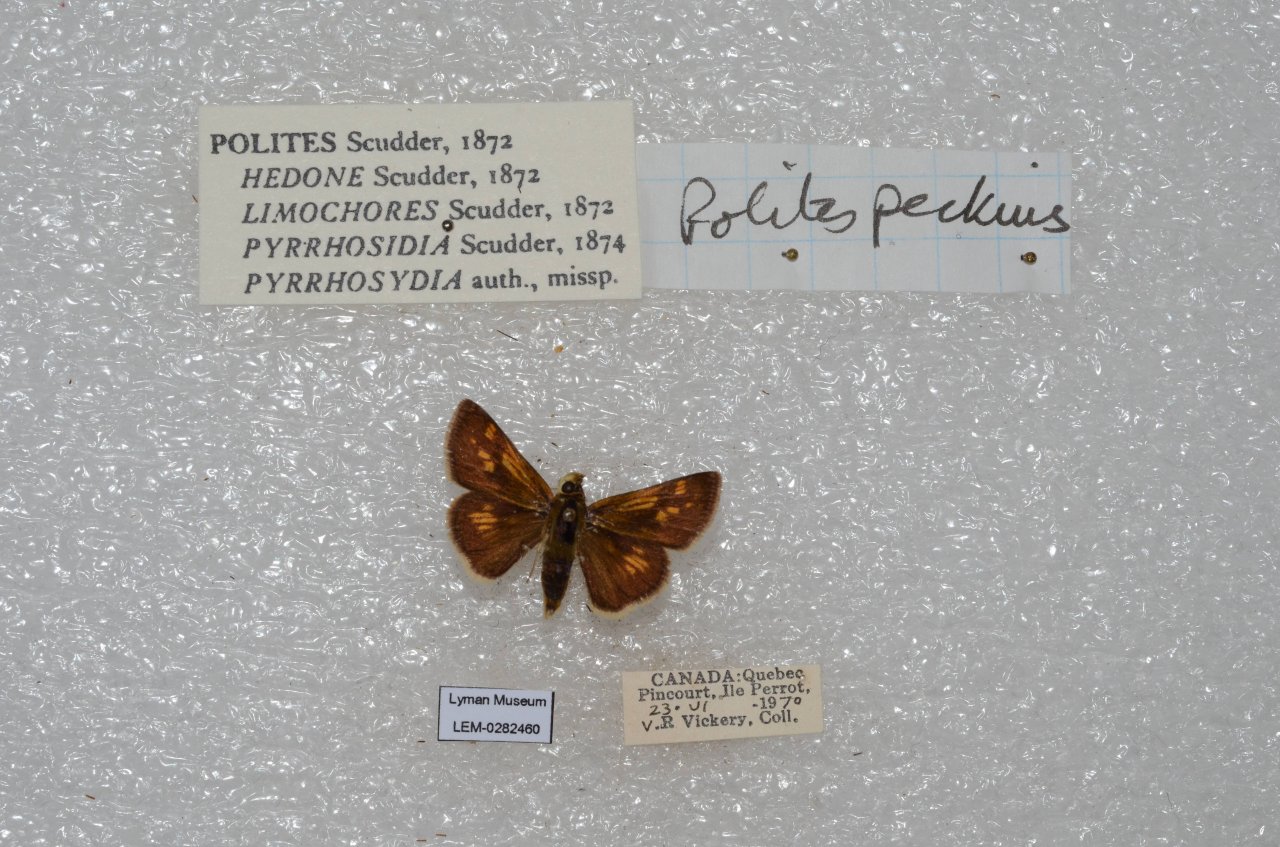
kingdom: Animalia
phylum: Arthropoda
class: Insecta
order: Lepidoptera
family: Hesperiidae
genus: Polites
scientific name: Polites coras
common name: Peck's Skipper
